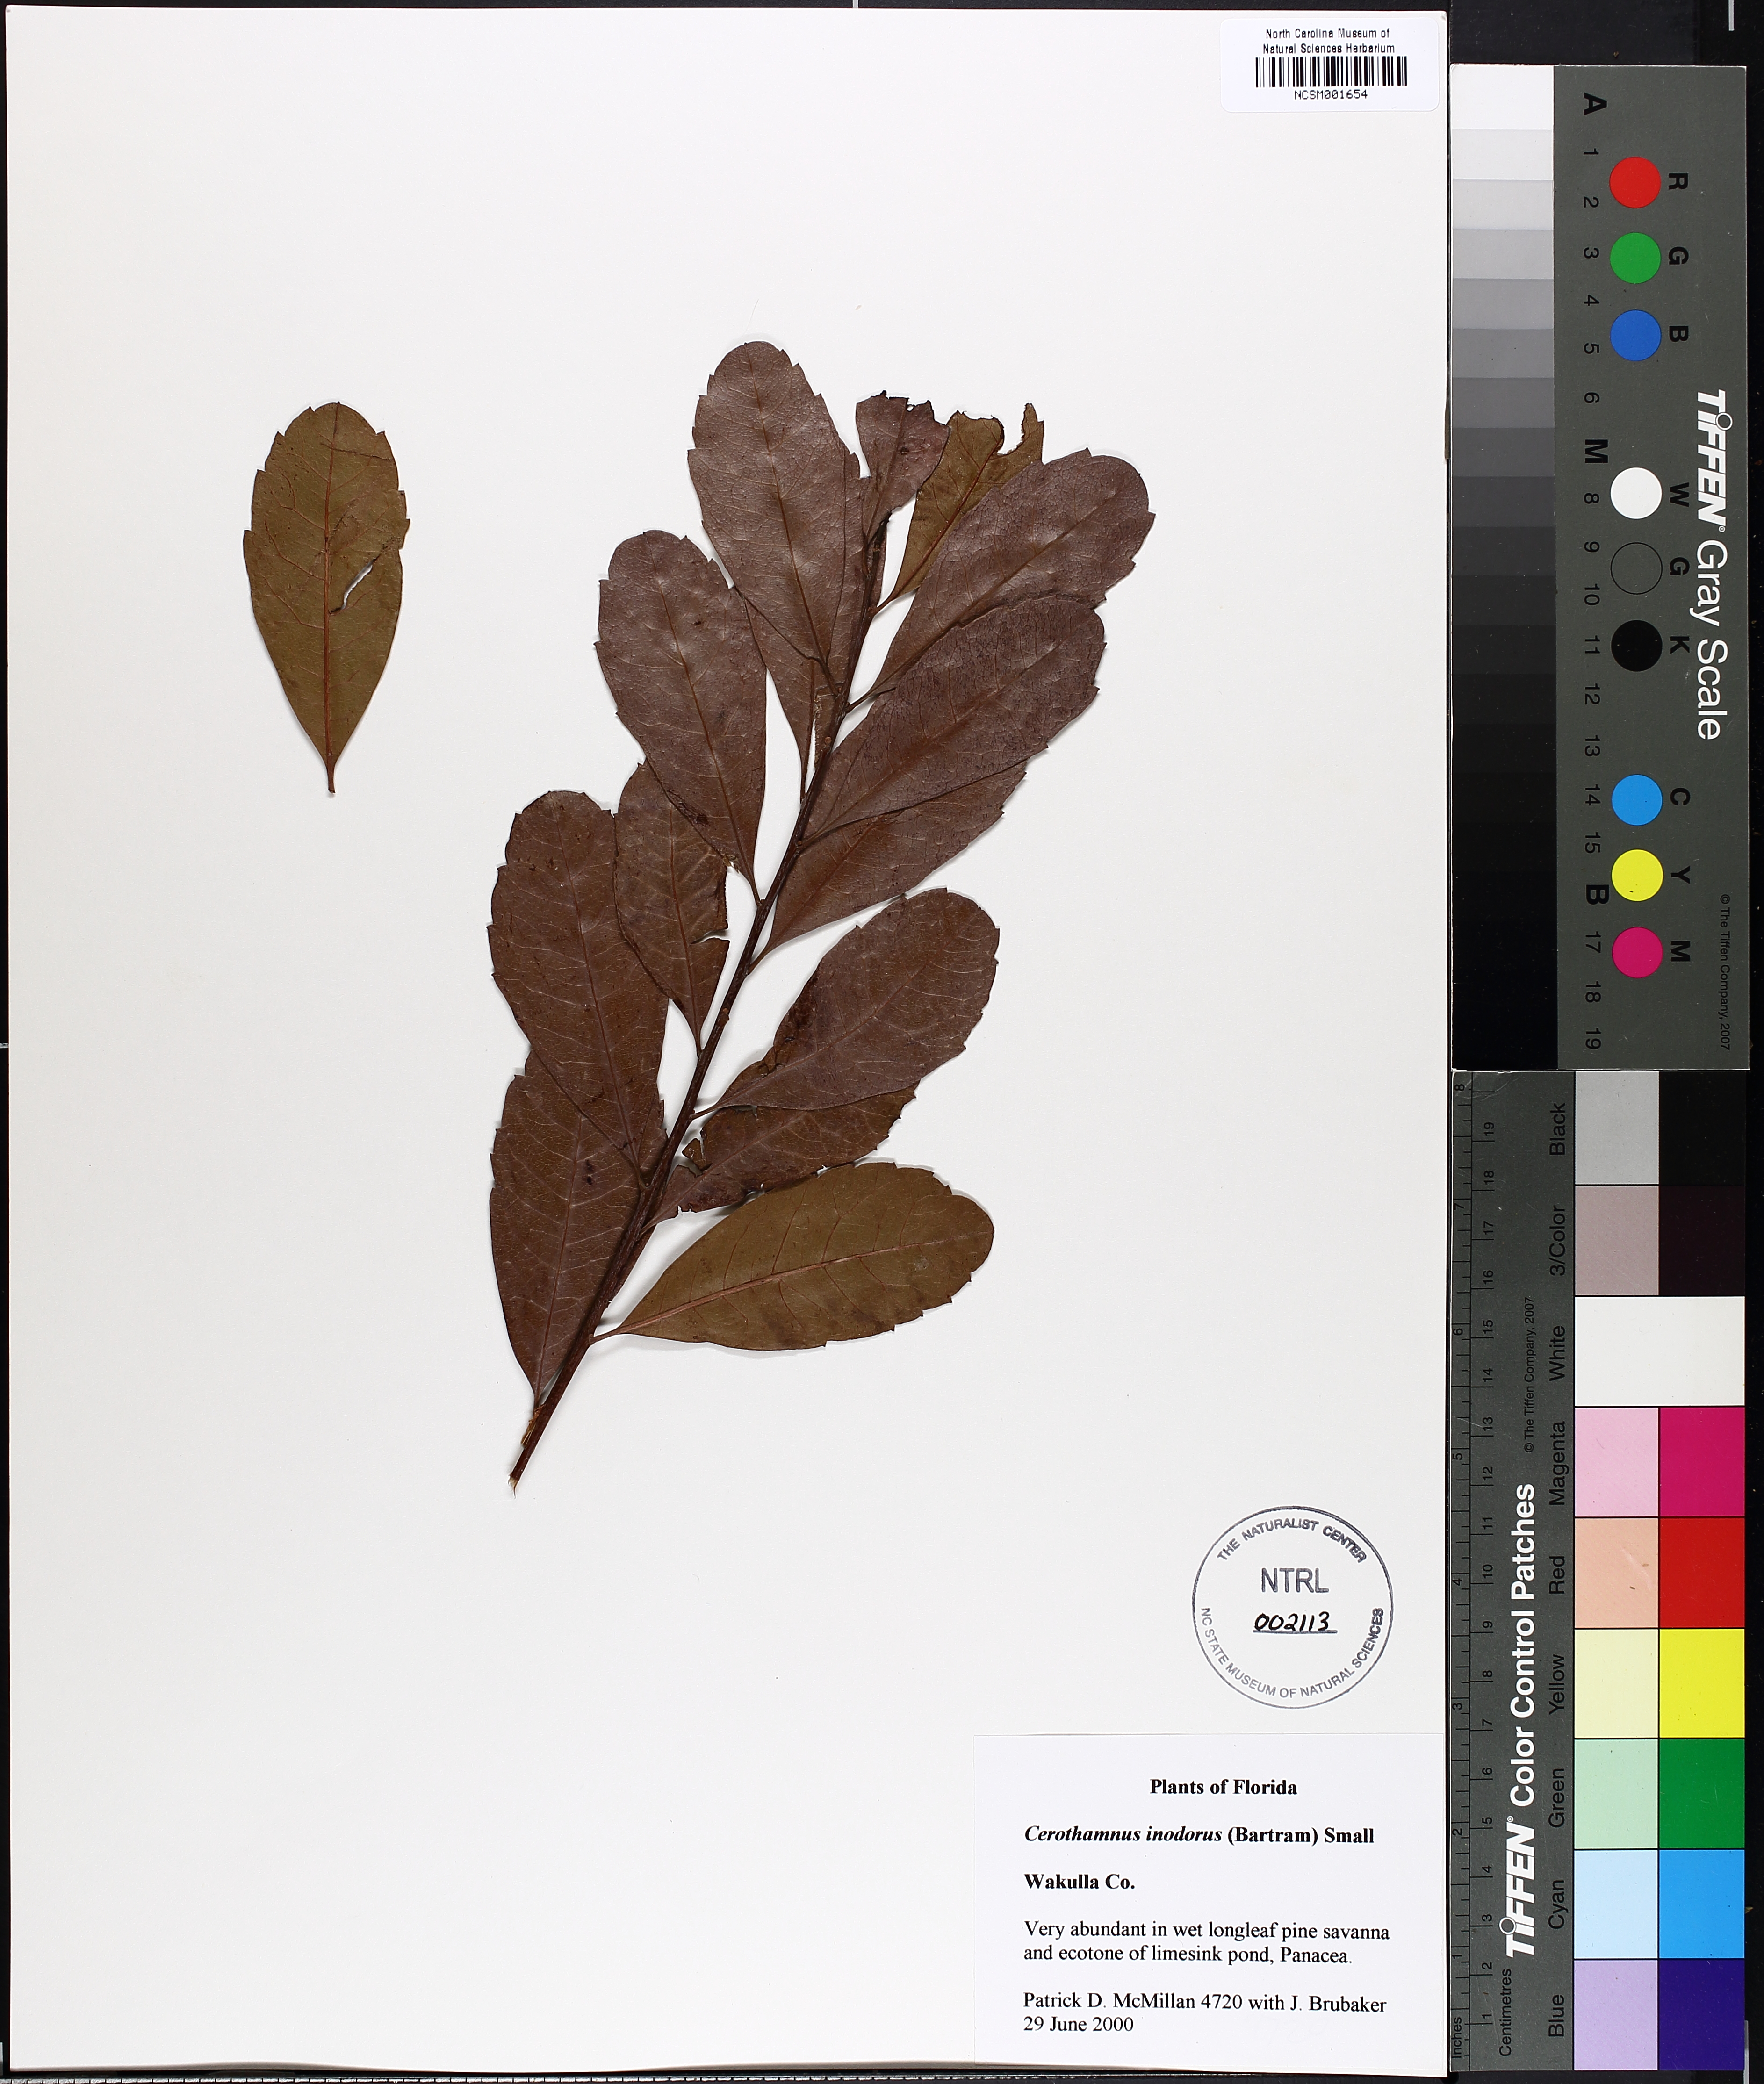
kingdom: Plantae
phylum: Tracheophyta
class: Magnoliopsida
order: Fagales
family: Myricaceae
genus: Morella
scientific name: Morella inodora
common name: Candle-berry
